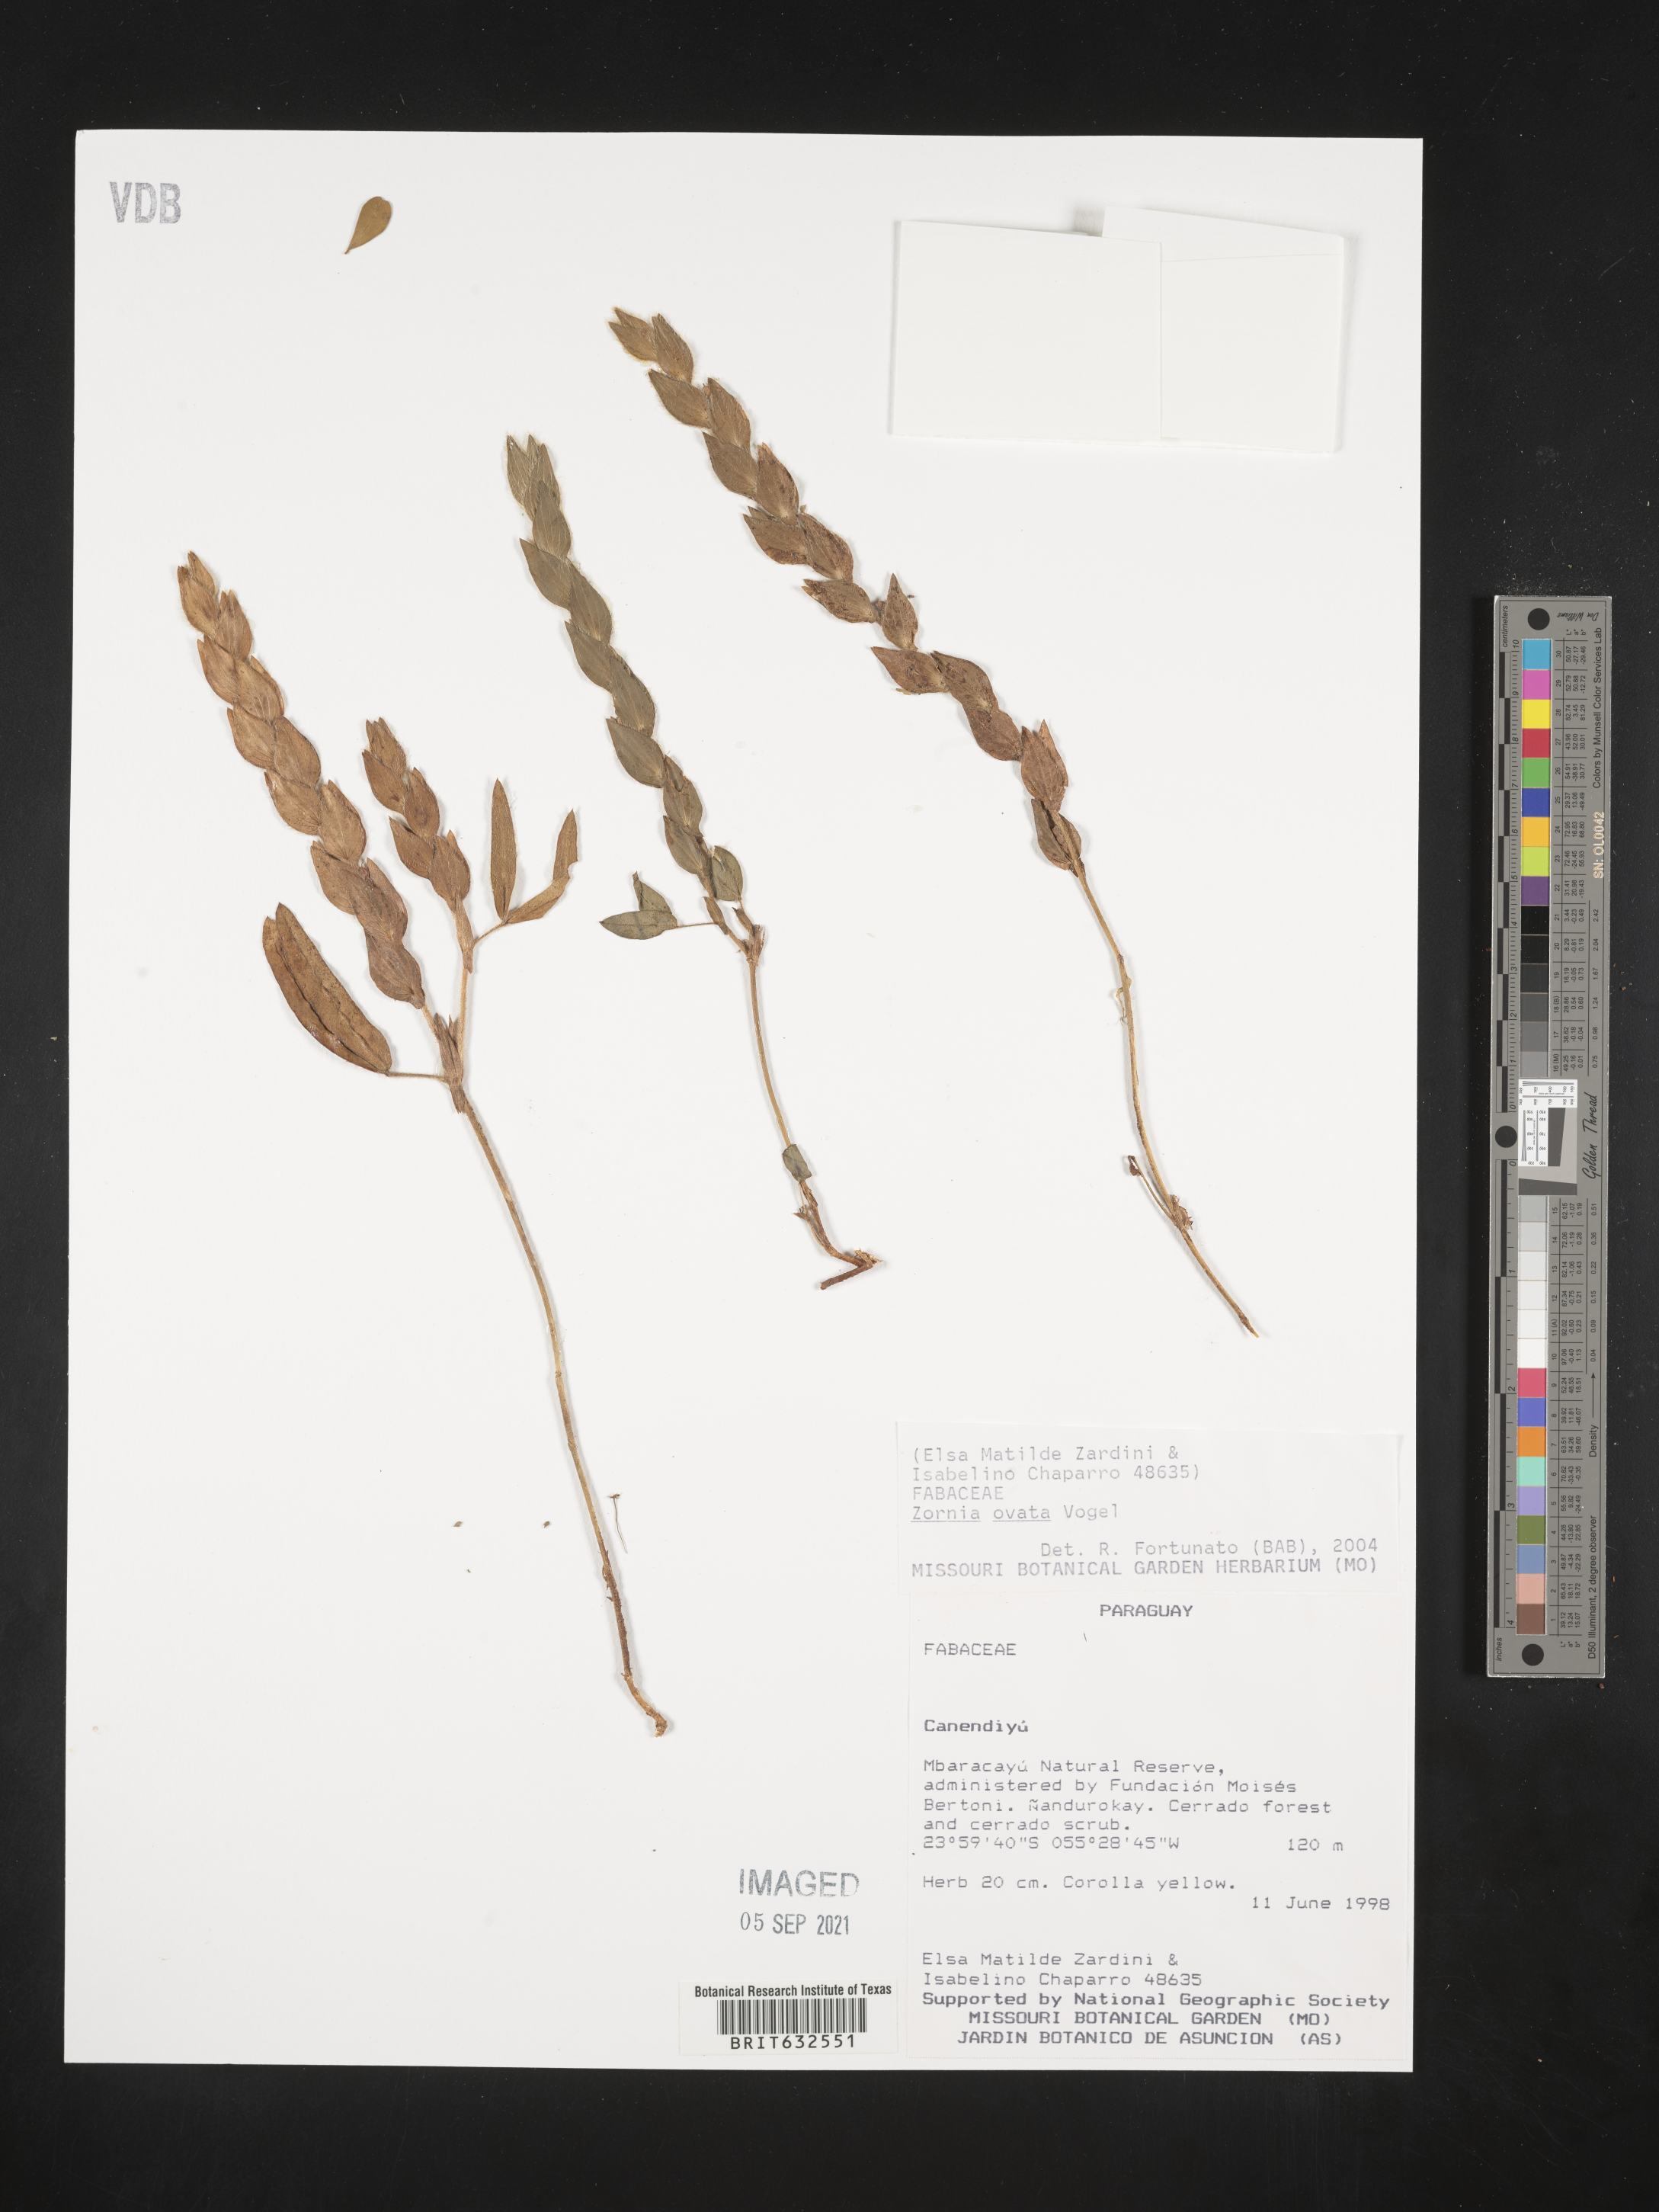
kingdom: Plantae
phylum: Tracheophyta
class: Magnoliopsida
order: Fabales
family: Fabaceae
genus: Zornia
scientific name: Zornia
